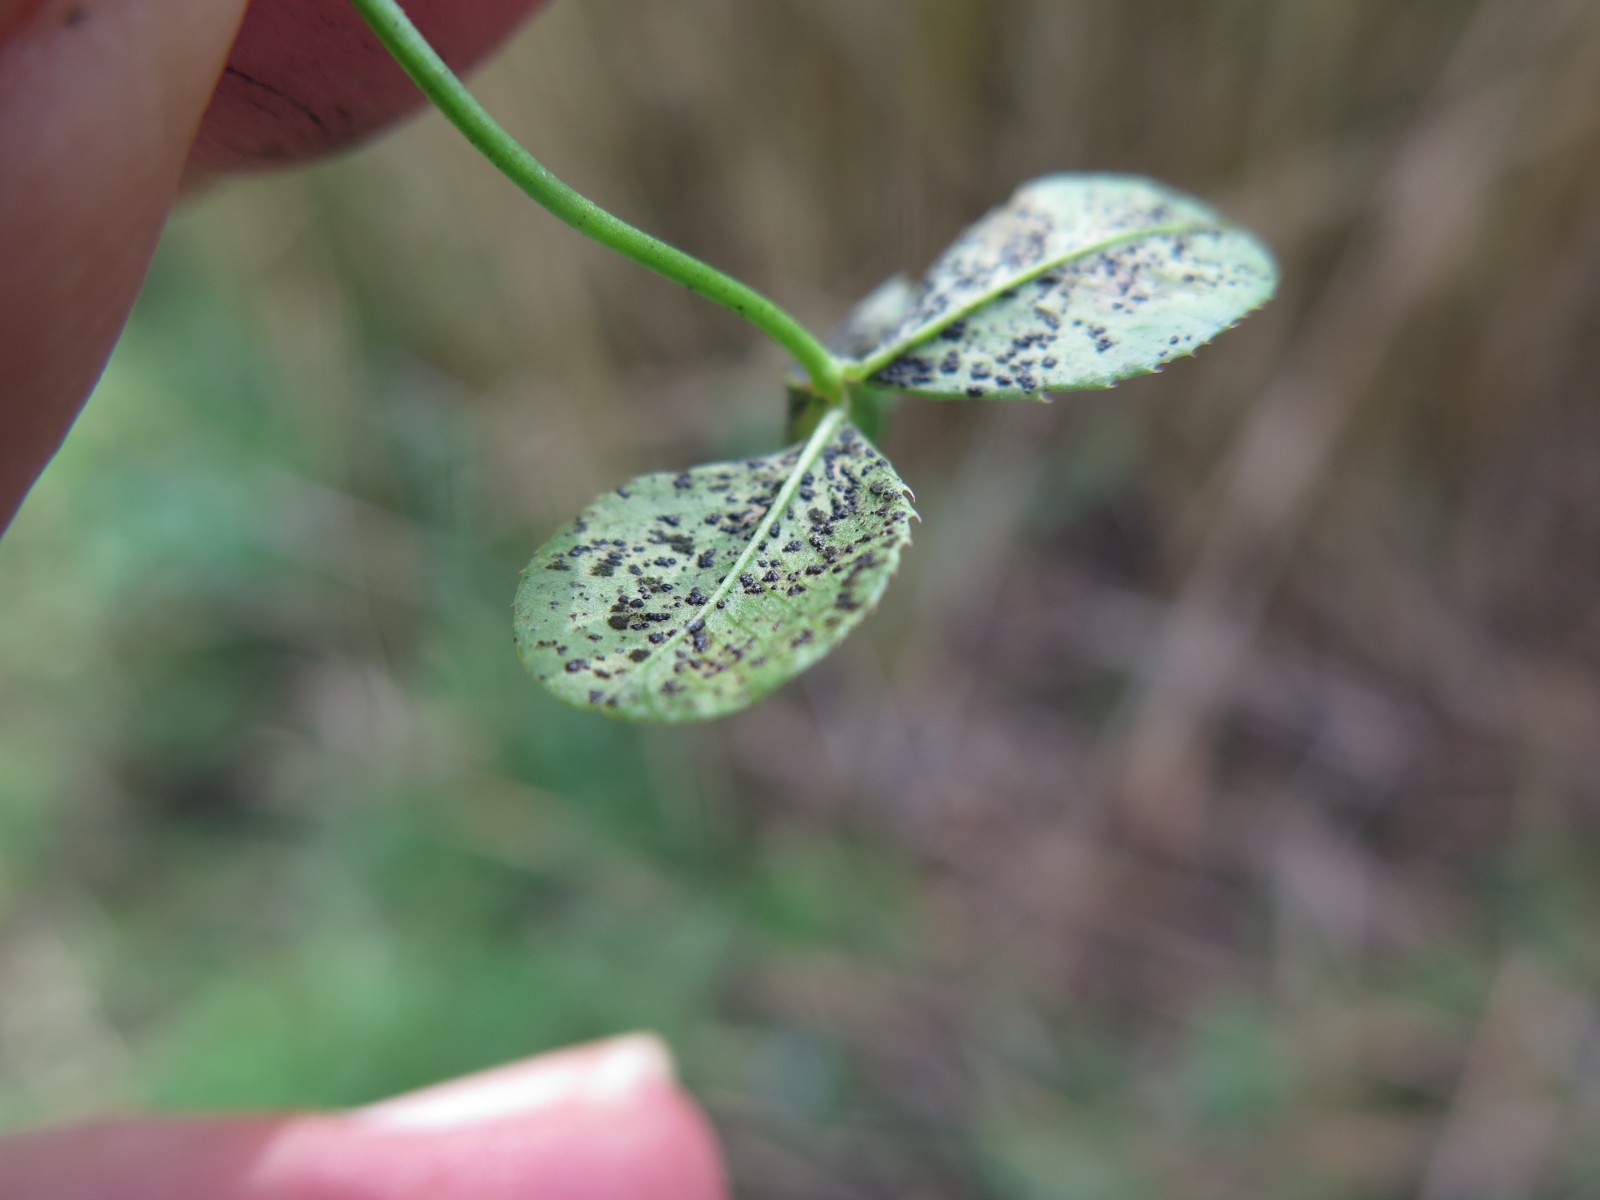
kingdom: Fungi
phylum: Ascomycota
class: Dothideomycetes
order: Mycosphaerellales
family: Mycosphaerellaceae
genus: Polythrincium
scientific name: Polythrincium trifolii
